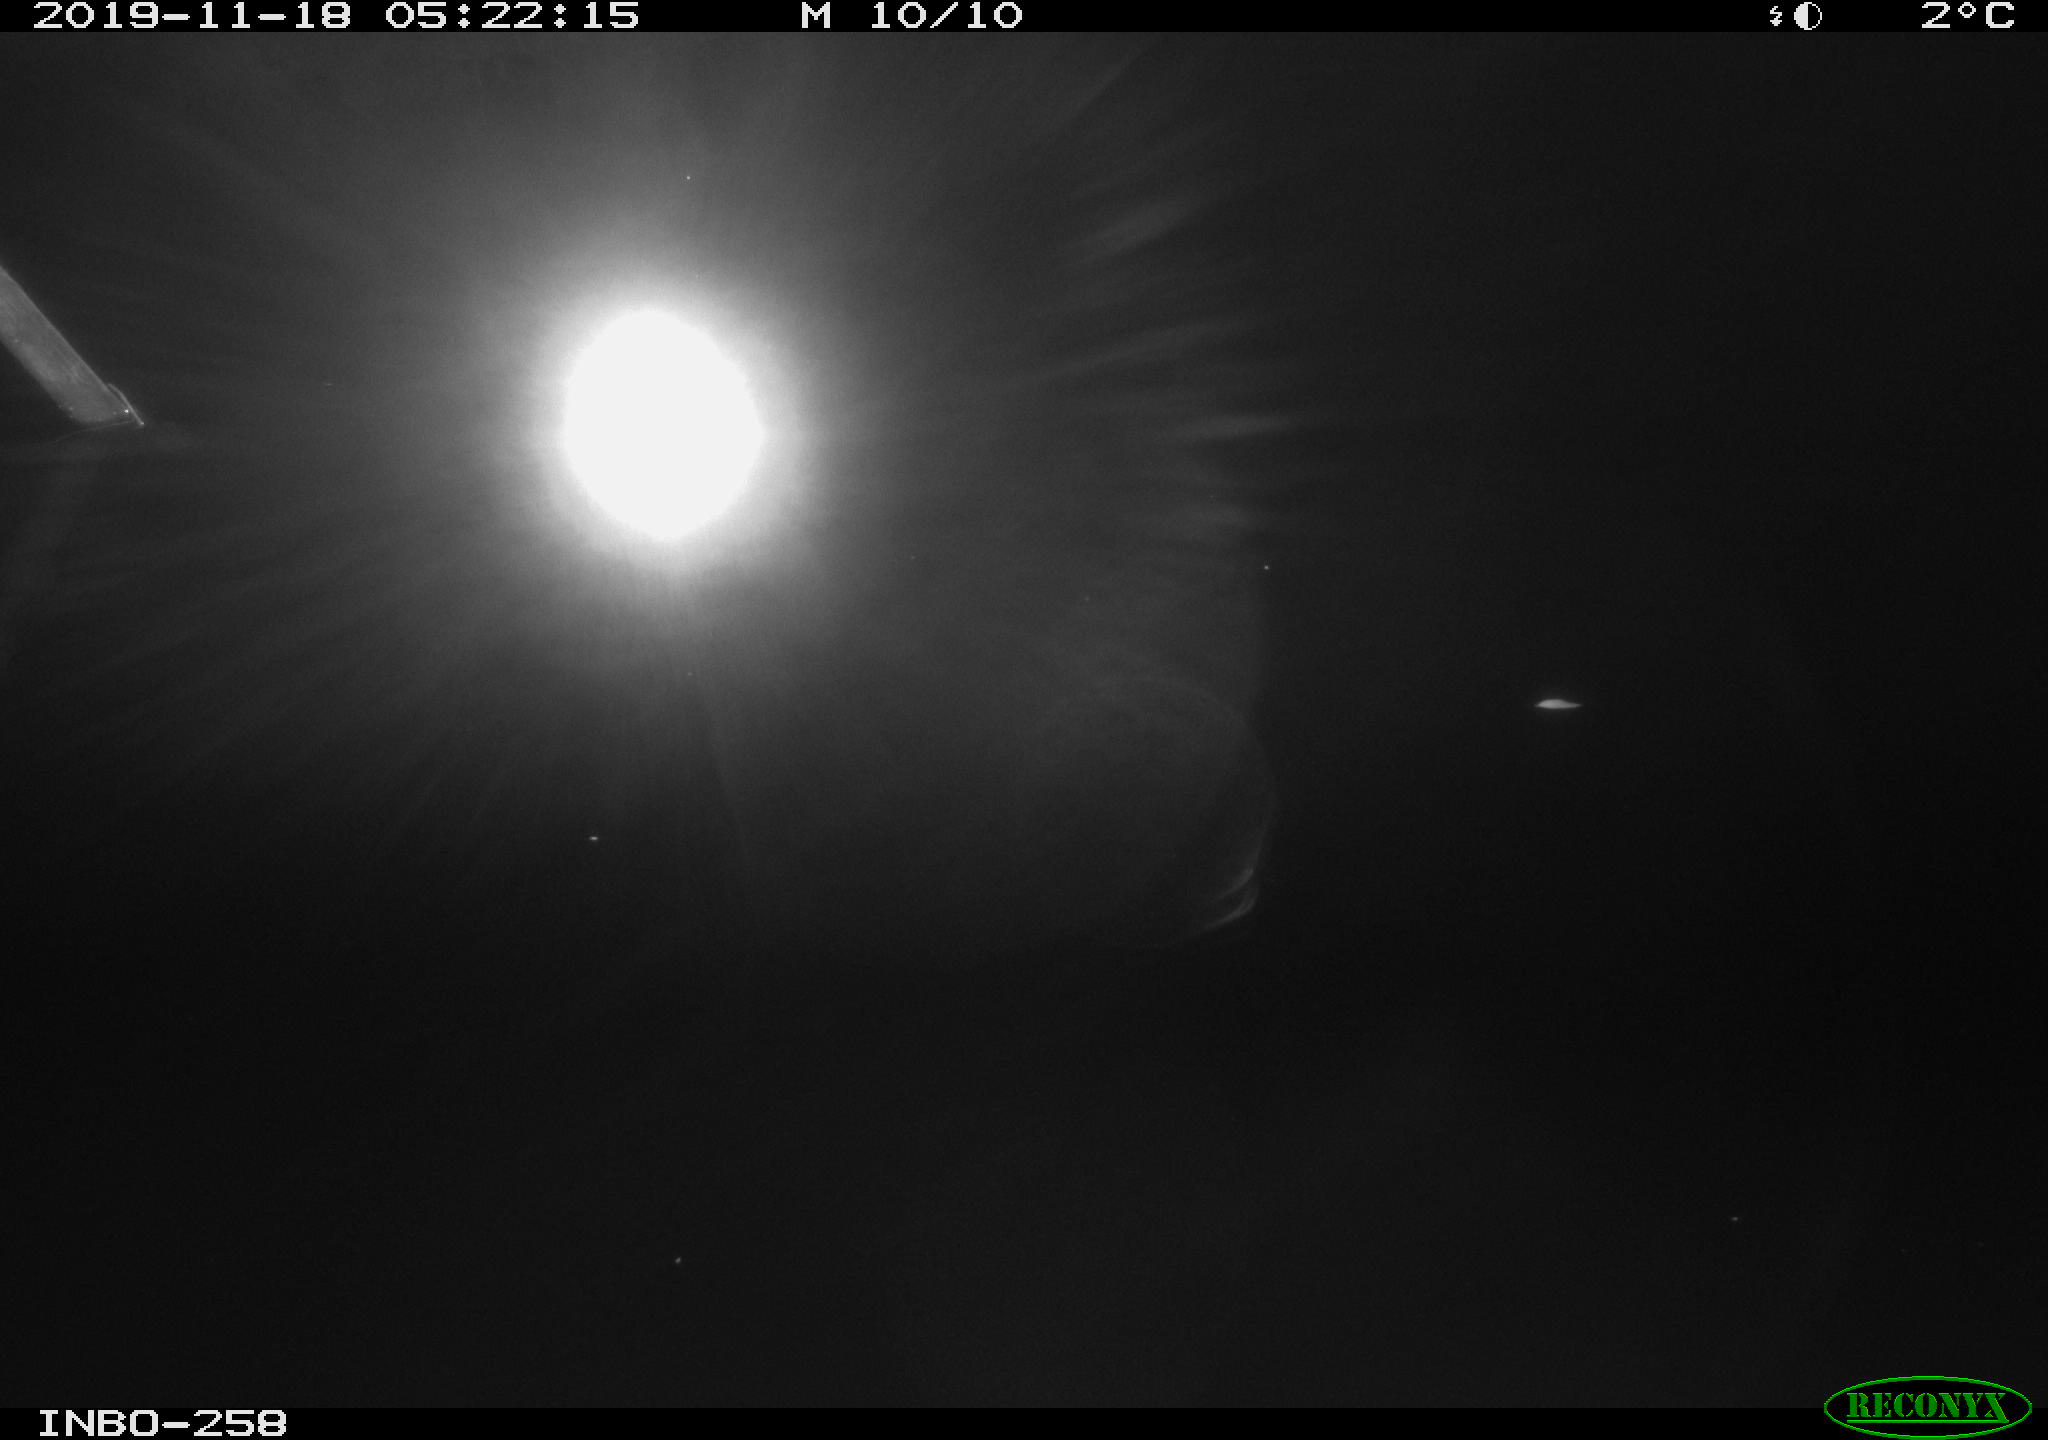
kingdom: Animalia
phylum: Chordata
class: Aves
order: Anseriformes
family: Anatidae
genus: Anas
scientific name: Anas platyrhynchos
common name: Mallard
